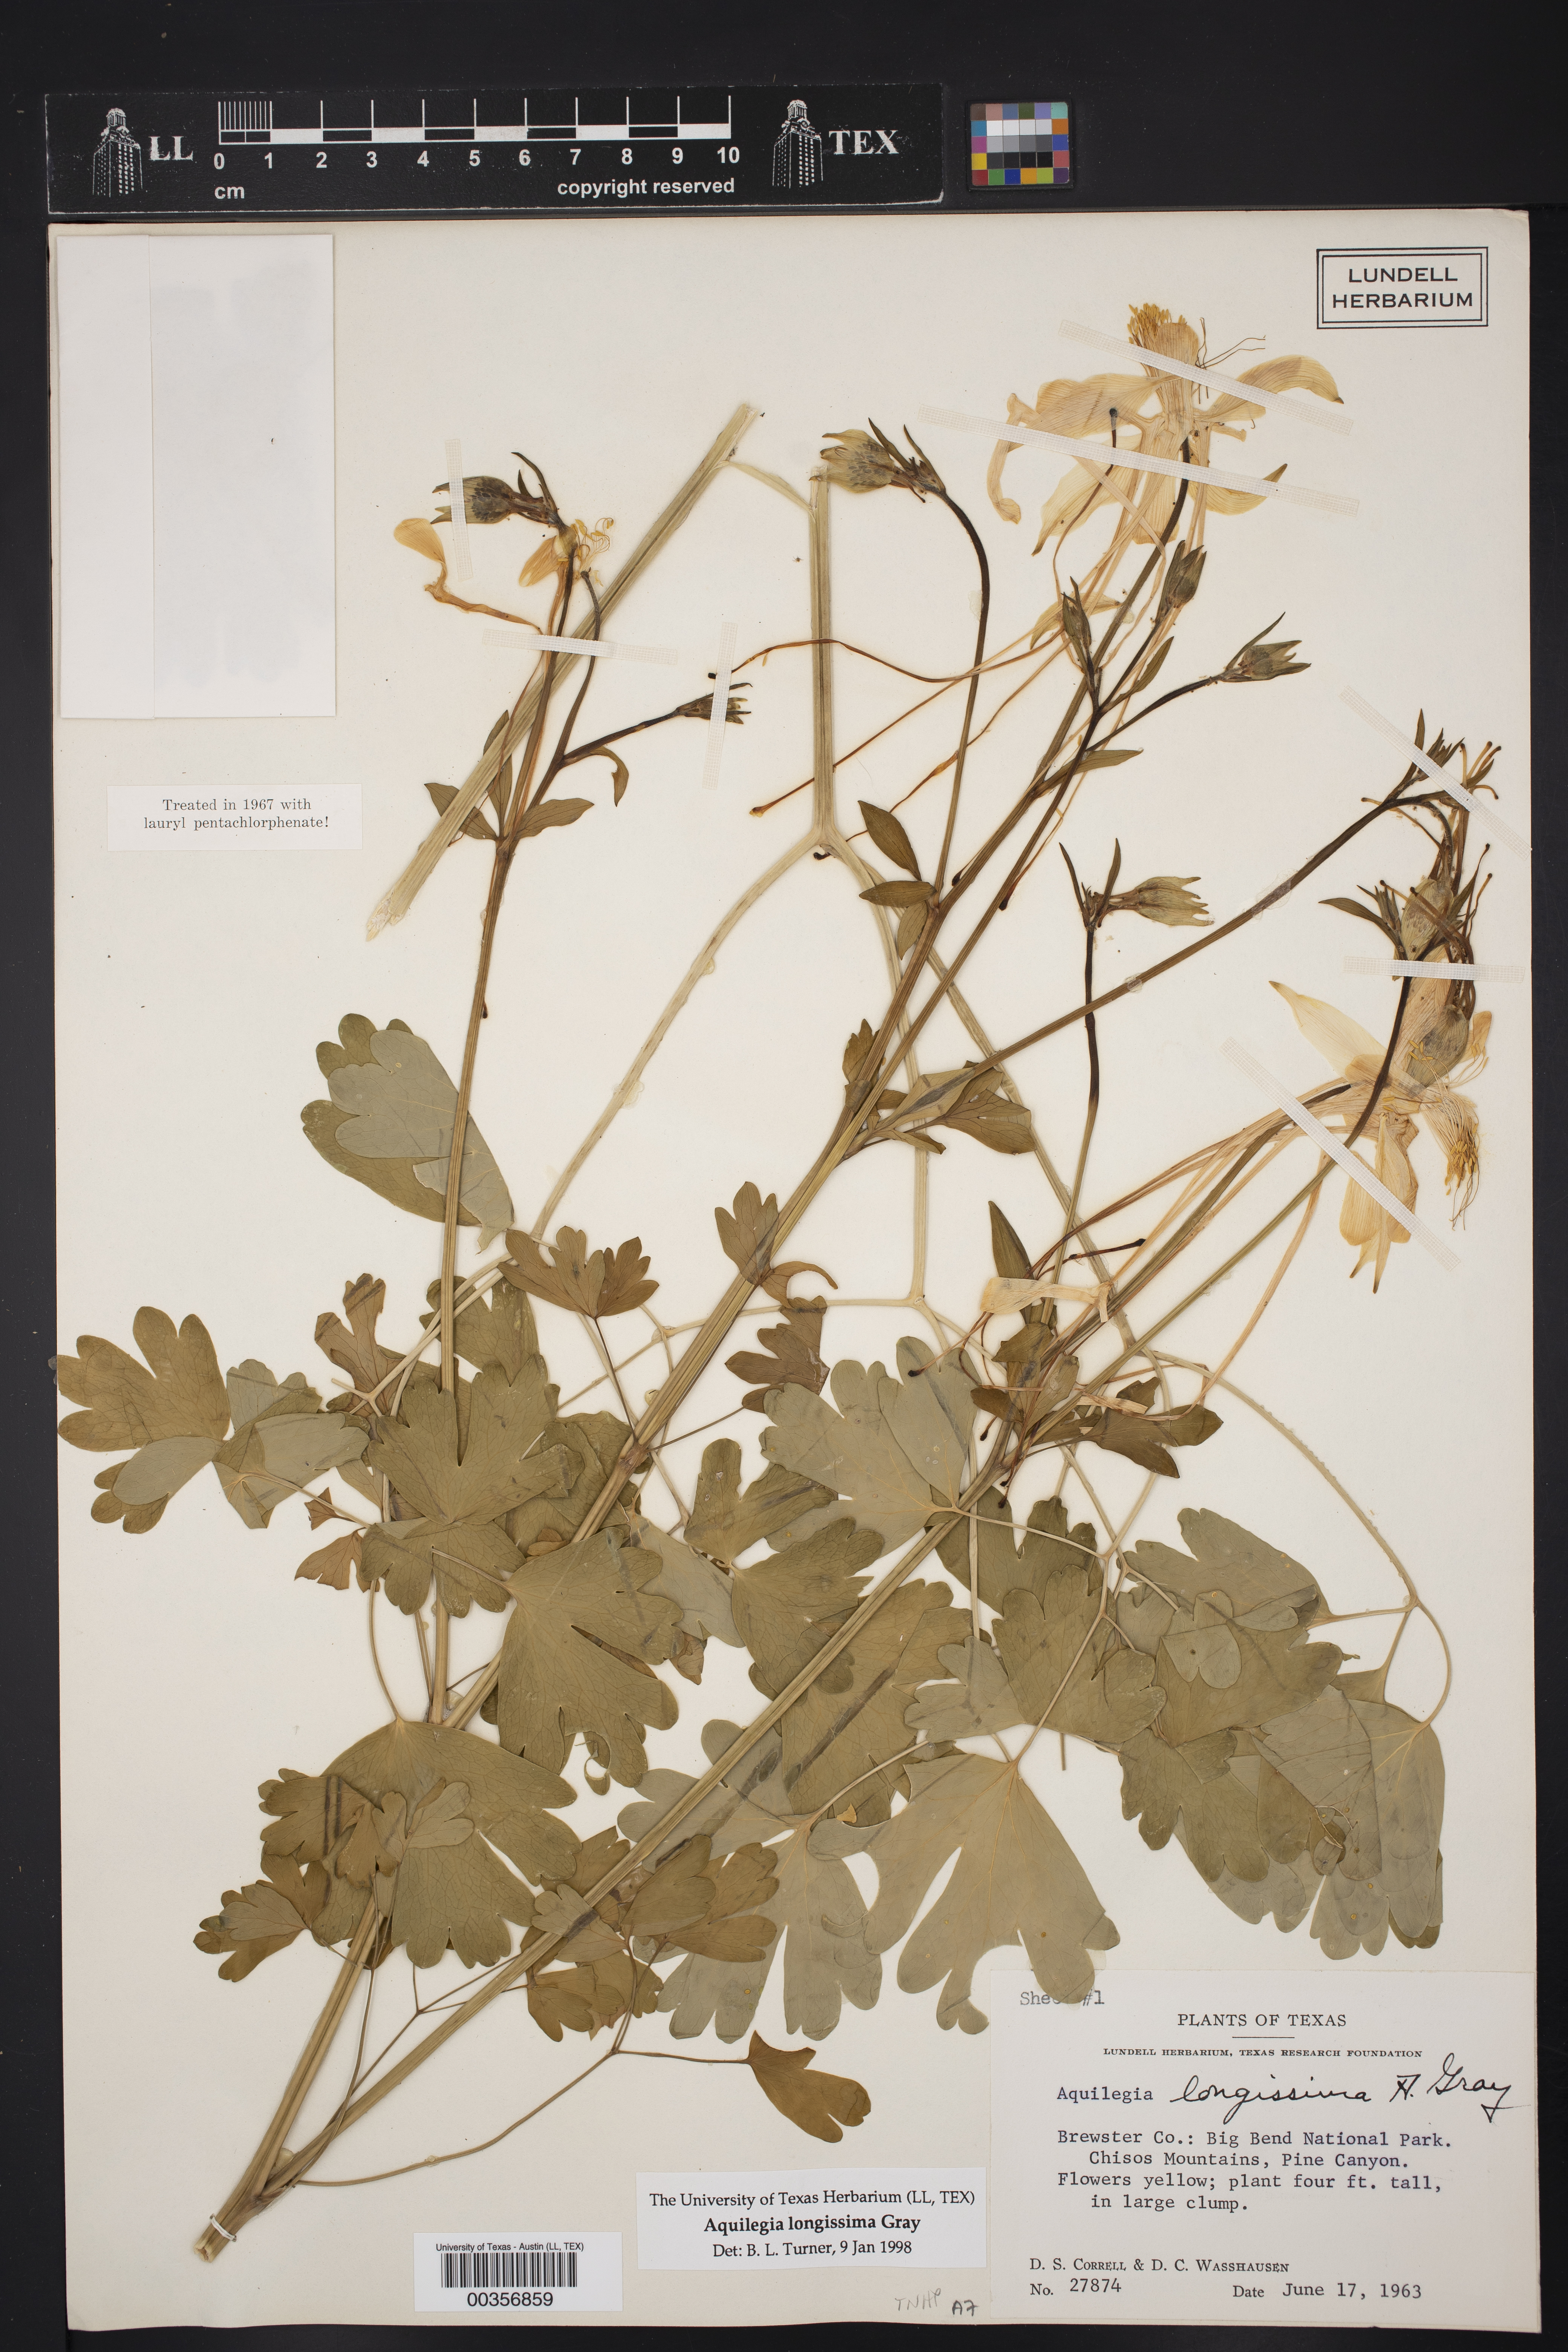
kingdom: Plantae
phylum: Tracheophyta
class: Magnoliopsida
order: Ranunculales
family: Ranunculaceae
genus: Aquilegia
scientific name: Aquilegia longissima
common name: Long-spur columbine
